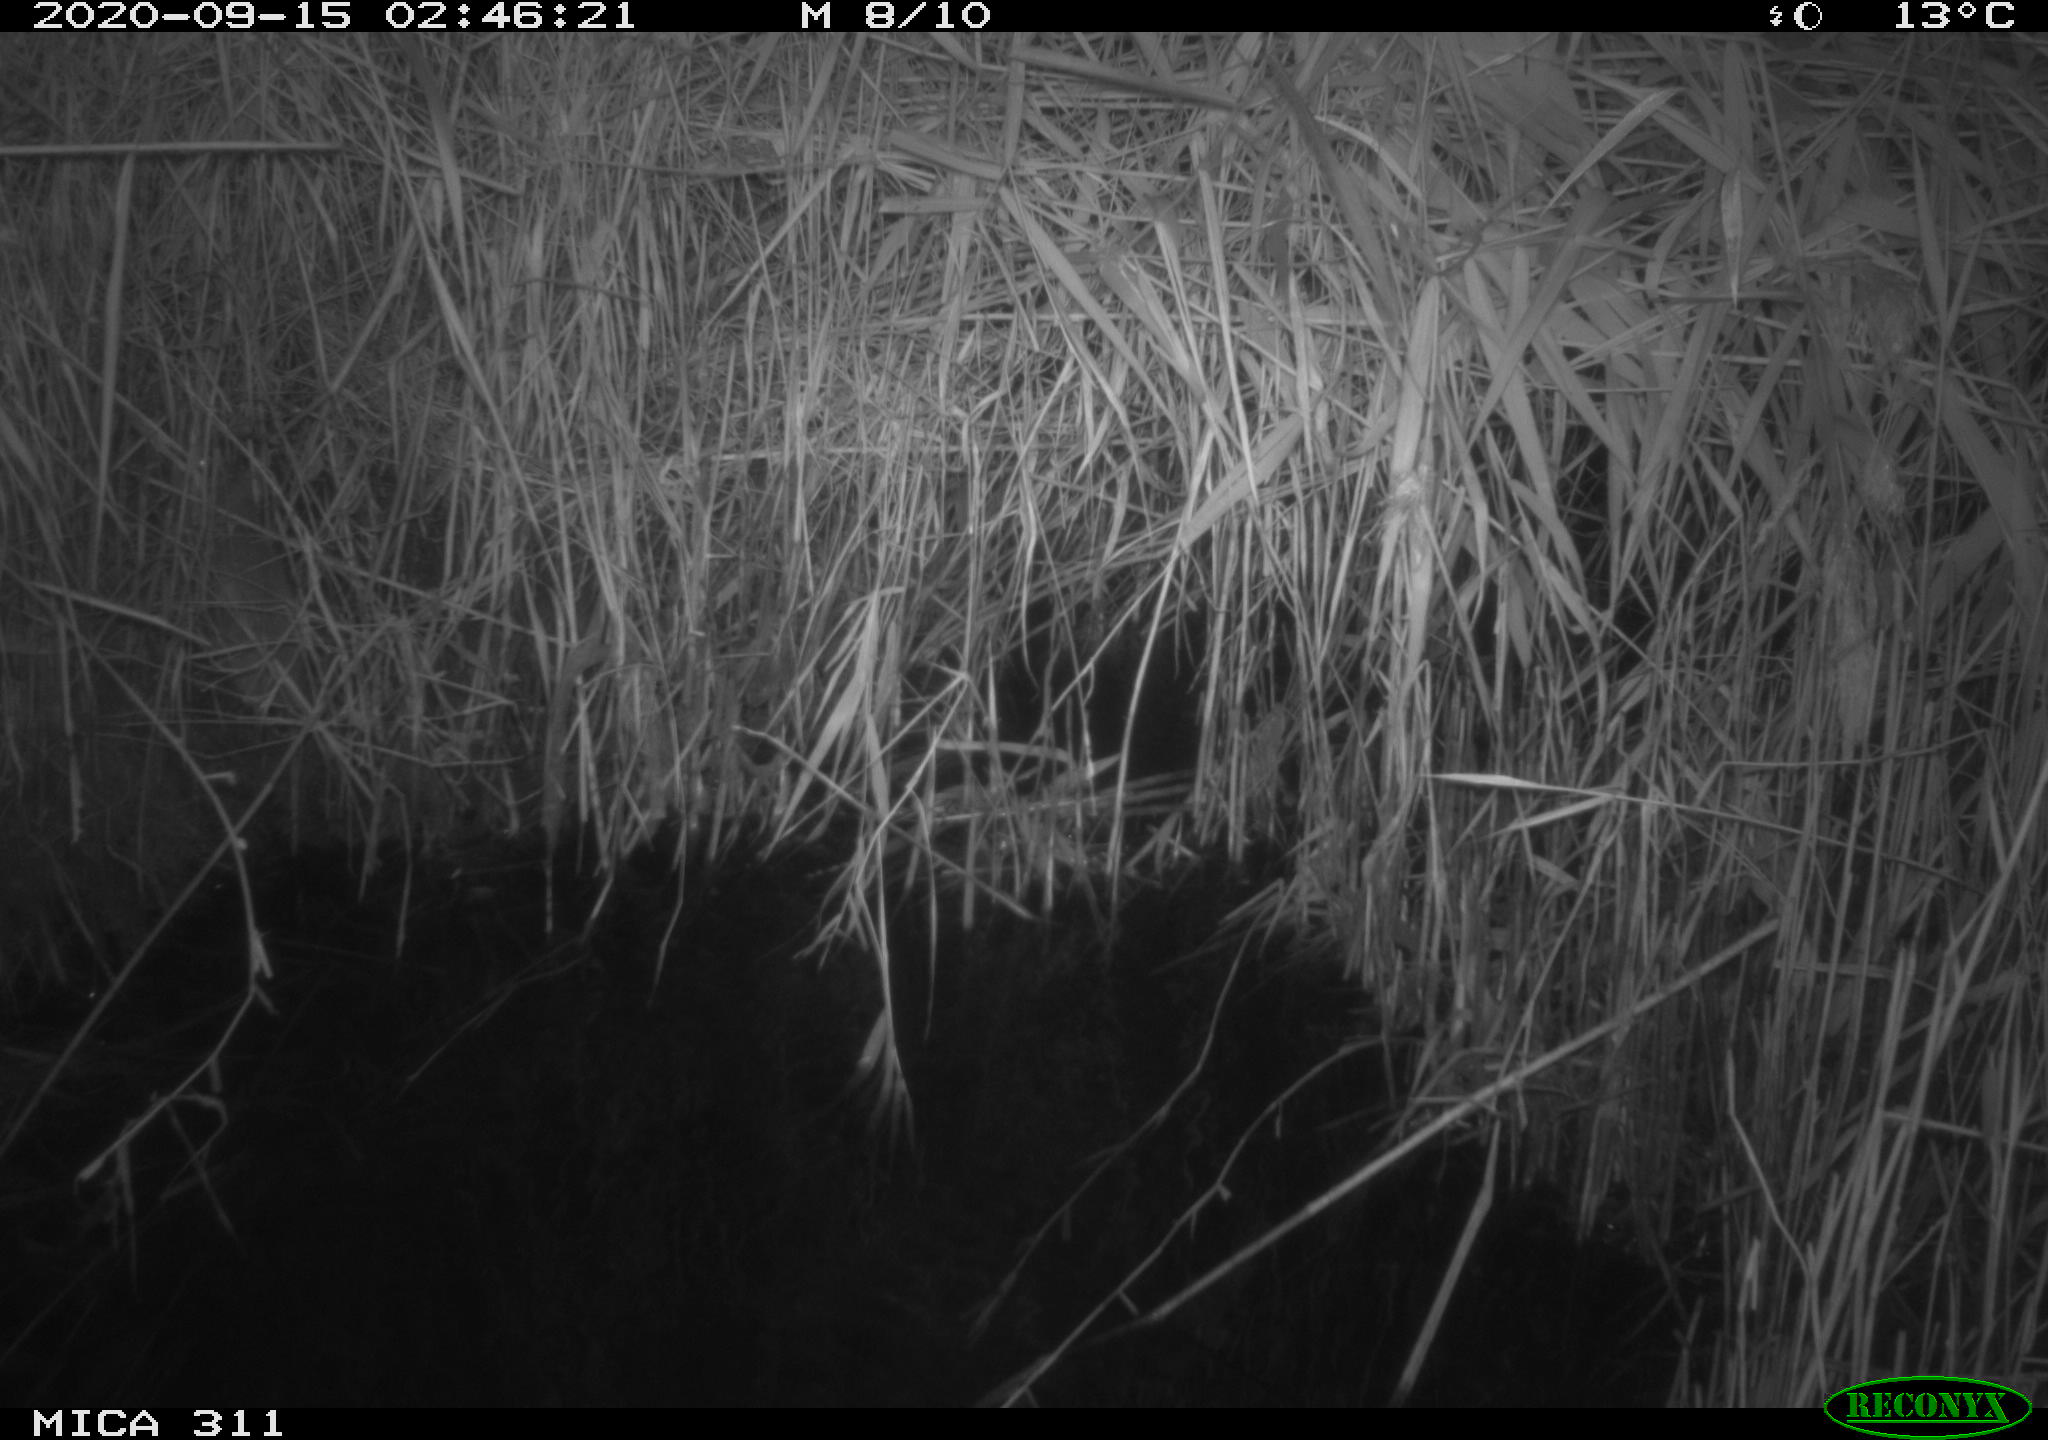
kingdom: Animalia
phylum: Chordata
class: Mammalia
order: Rodentia
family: Muridae
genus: Rattus
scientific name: Rattus norvegicus
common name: Brown rat
